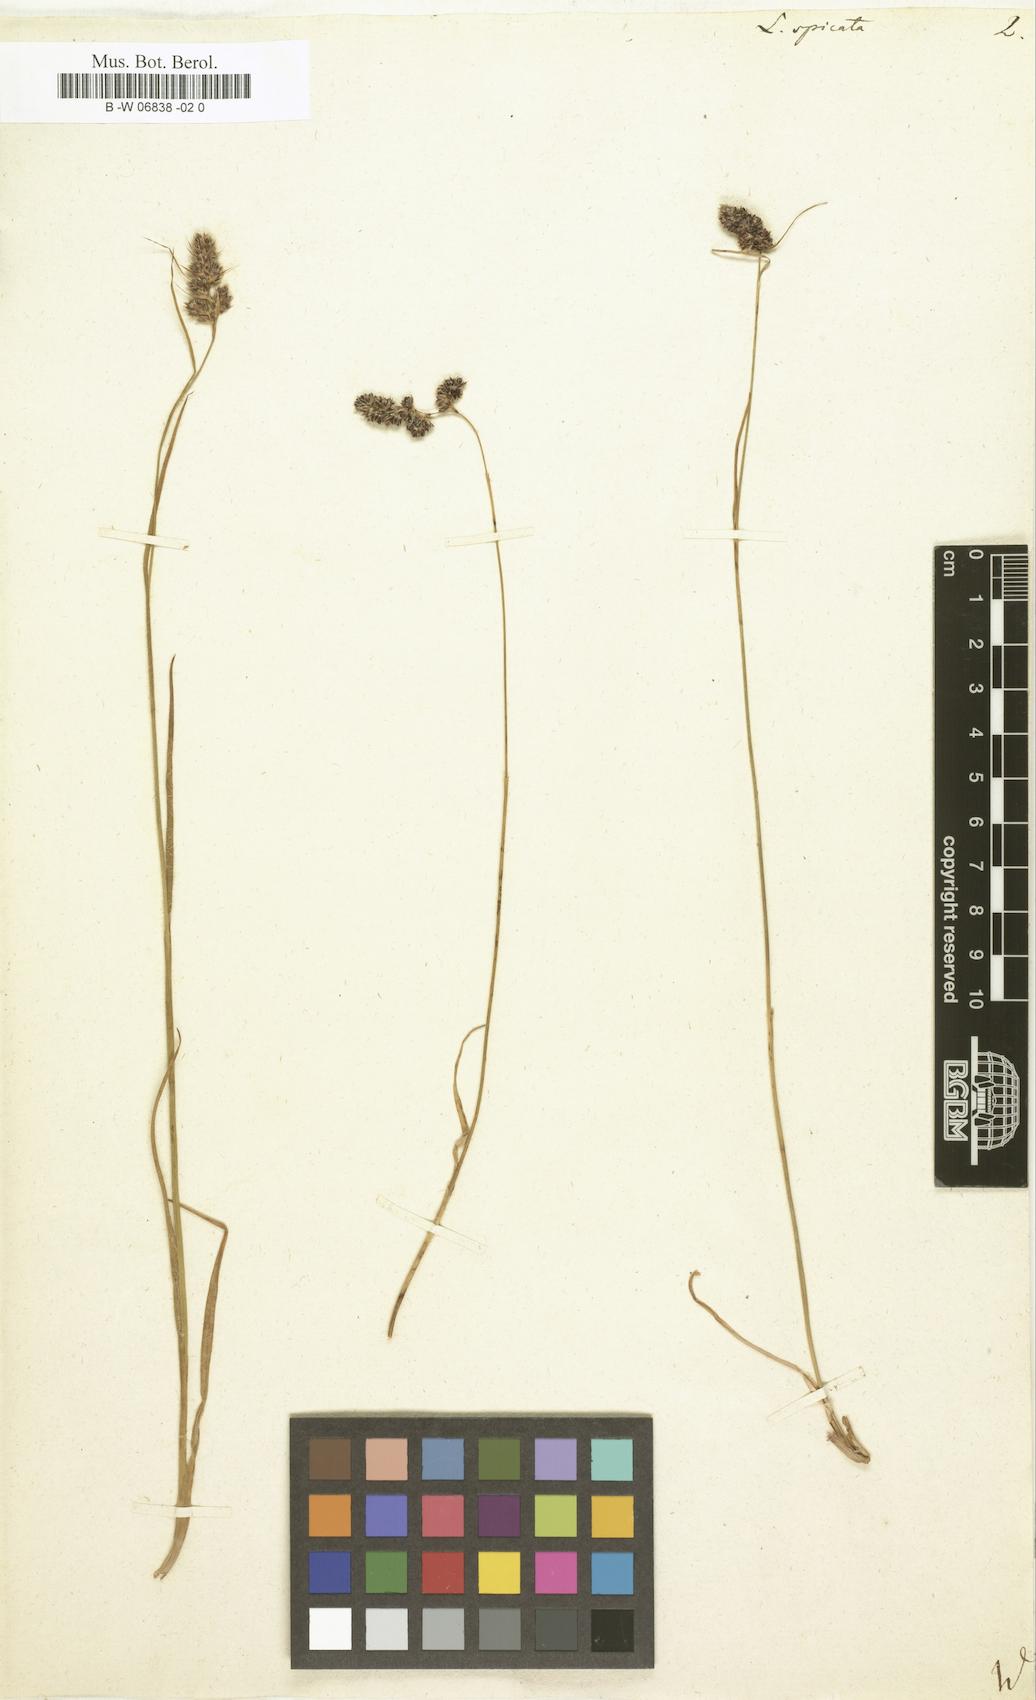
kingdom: Plantae
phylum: Tracheophyta
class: Liliopsida
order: Poales
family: Juncaceae
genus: Luzula
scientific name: Luzula spicata
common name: Spiked wood-rush
